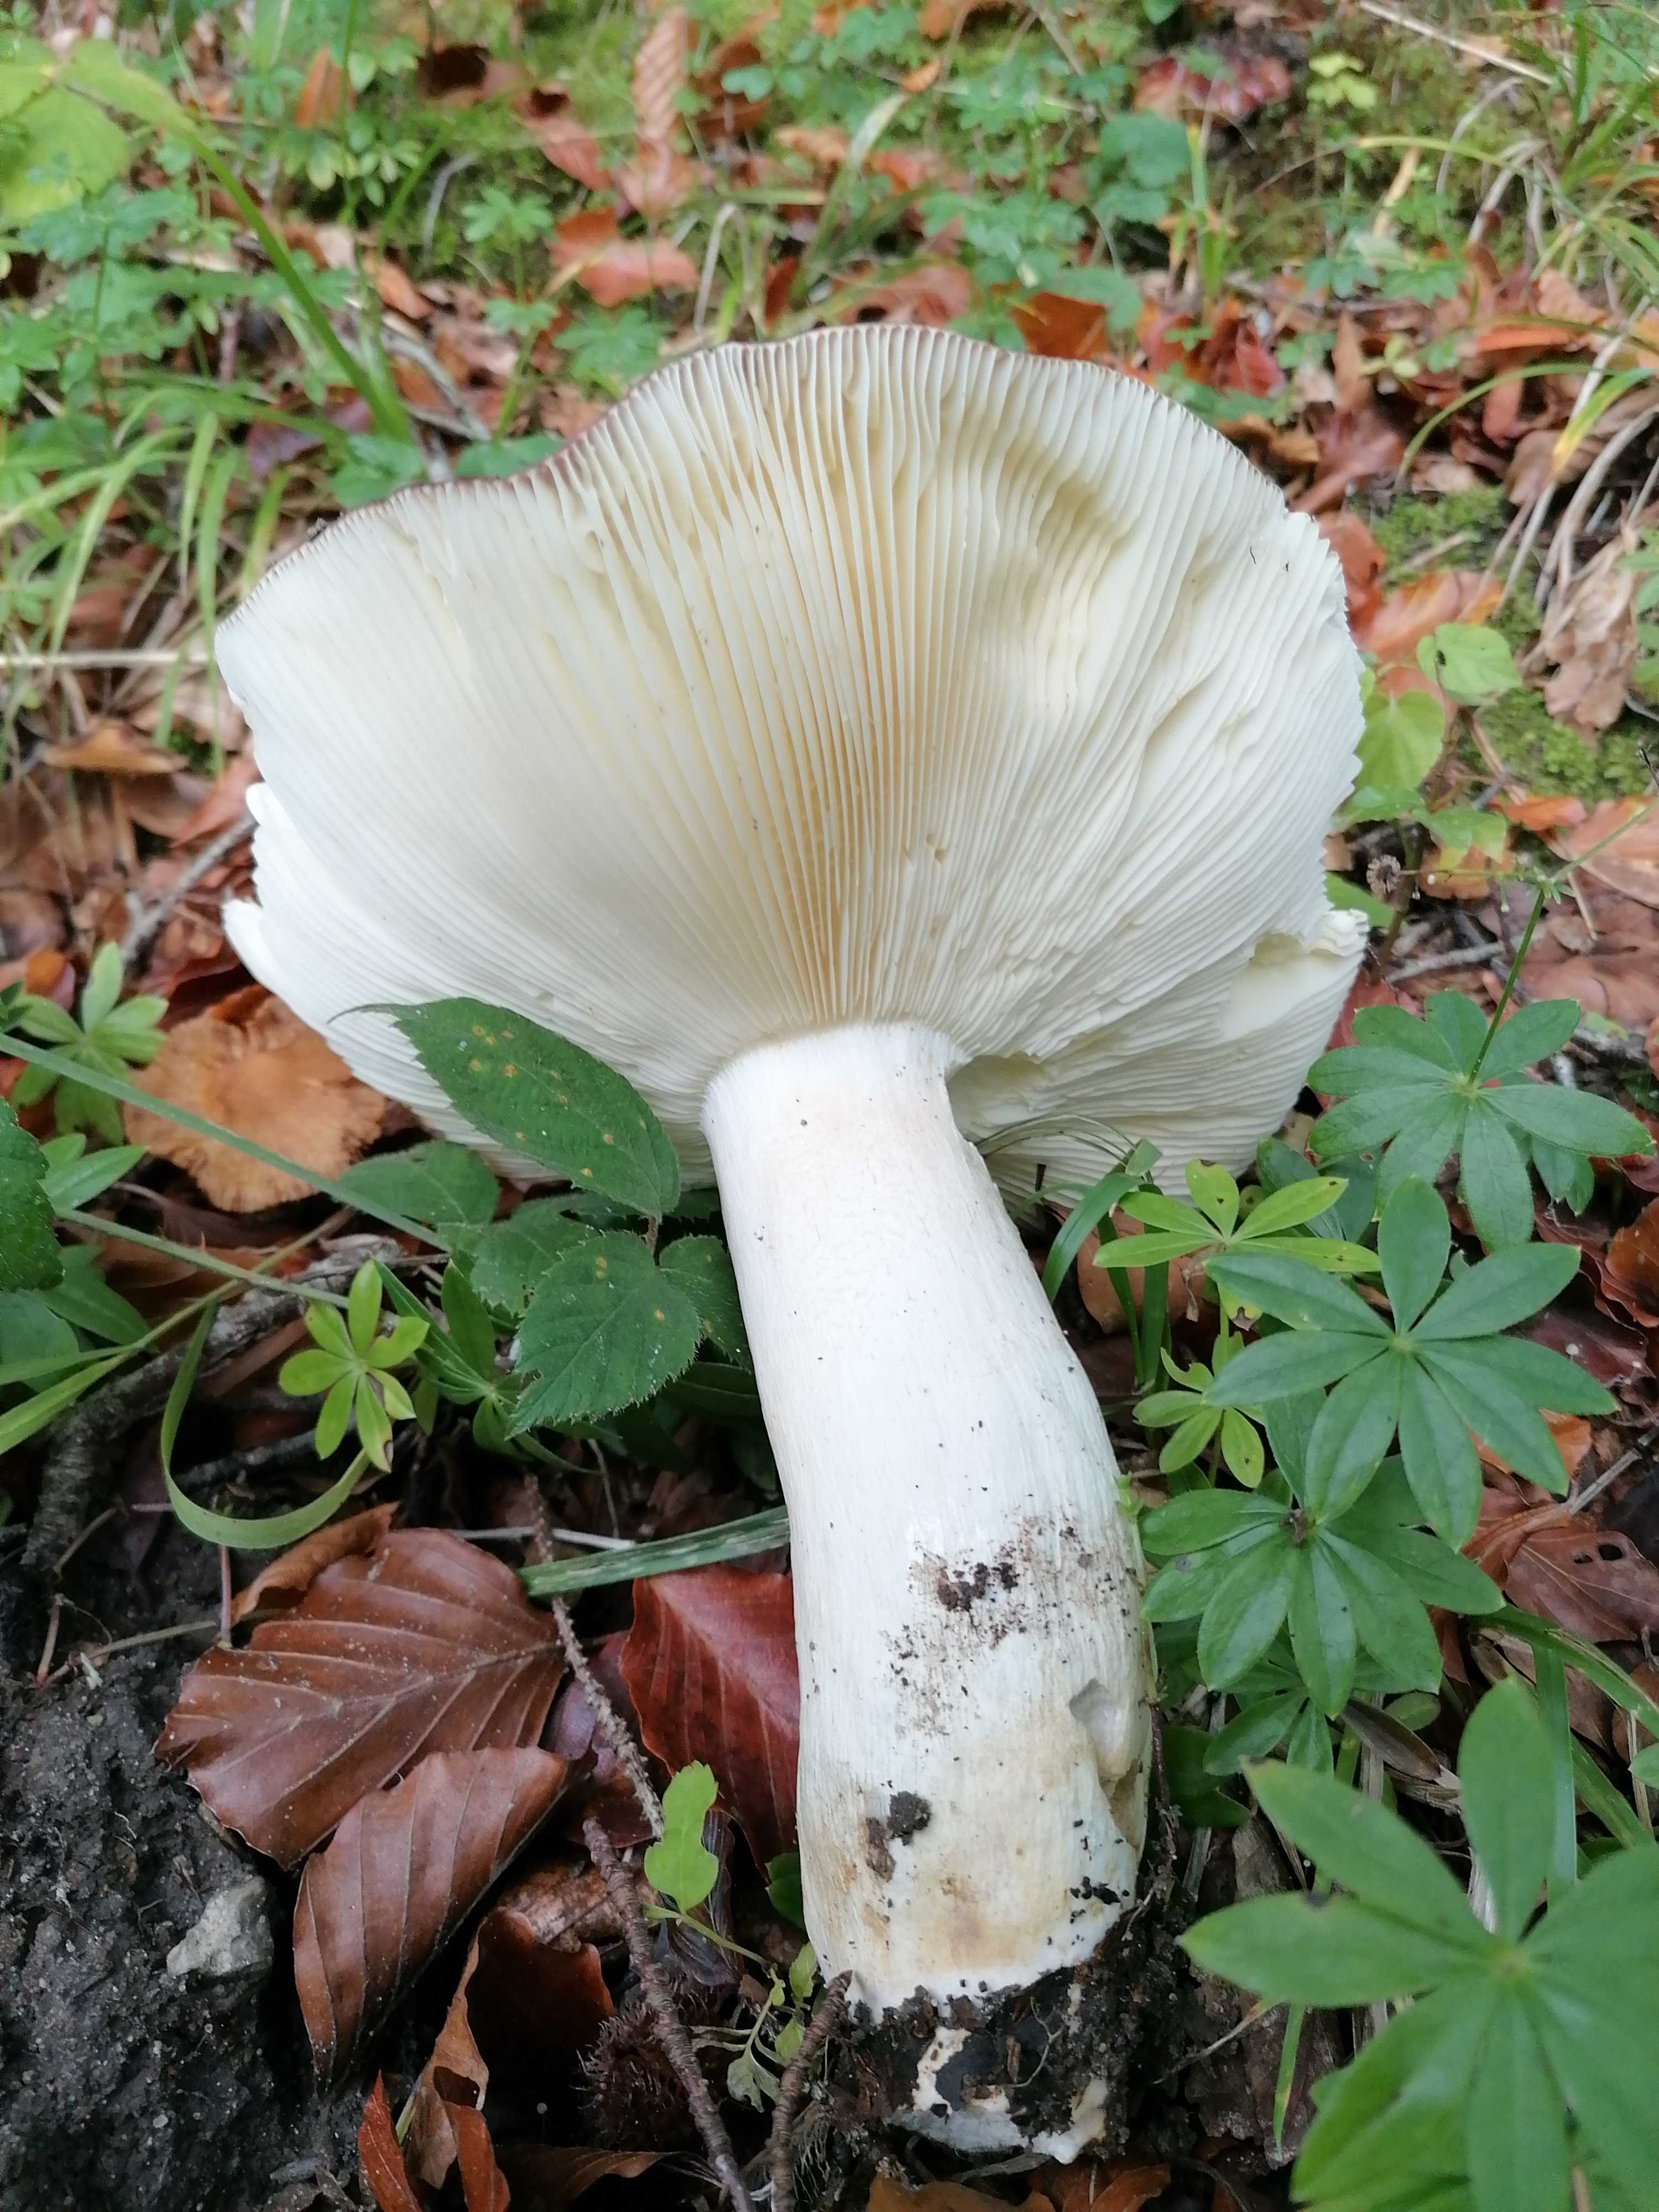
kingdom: Fungi
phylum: Basidiomycota
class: Agaricomycetes
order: Russulales
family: Russulaceae
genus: Russula
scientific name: Russula viscida
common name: knippe-skørhat
